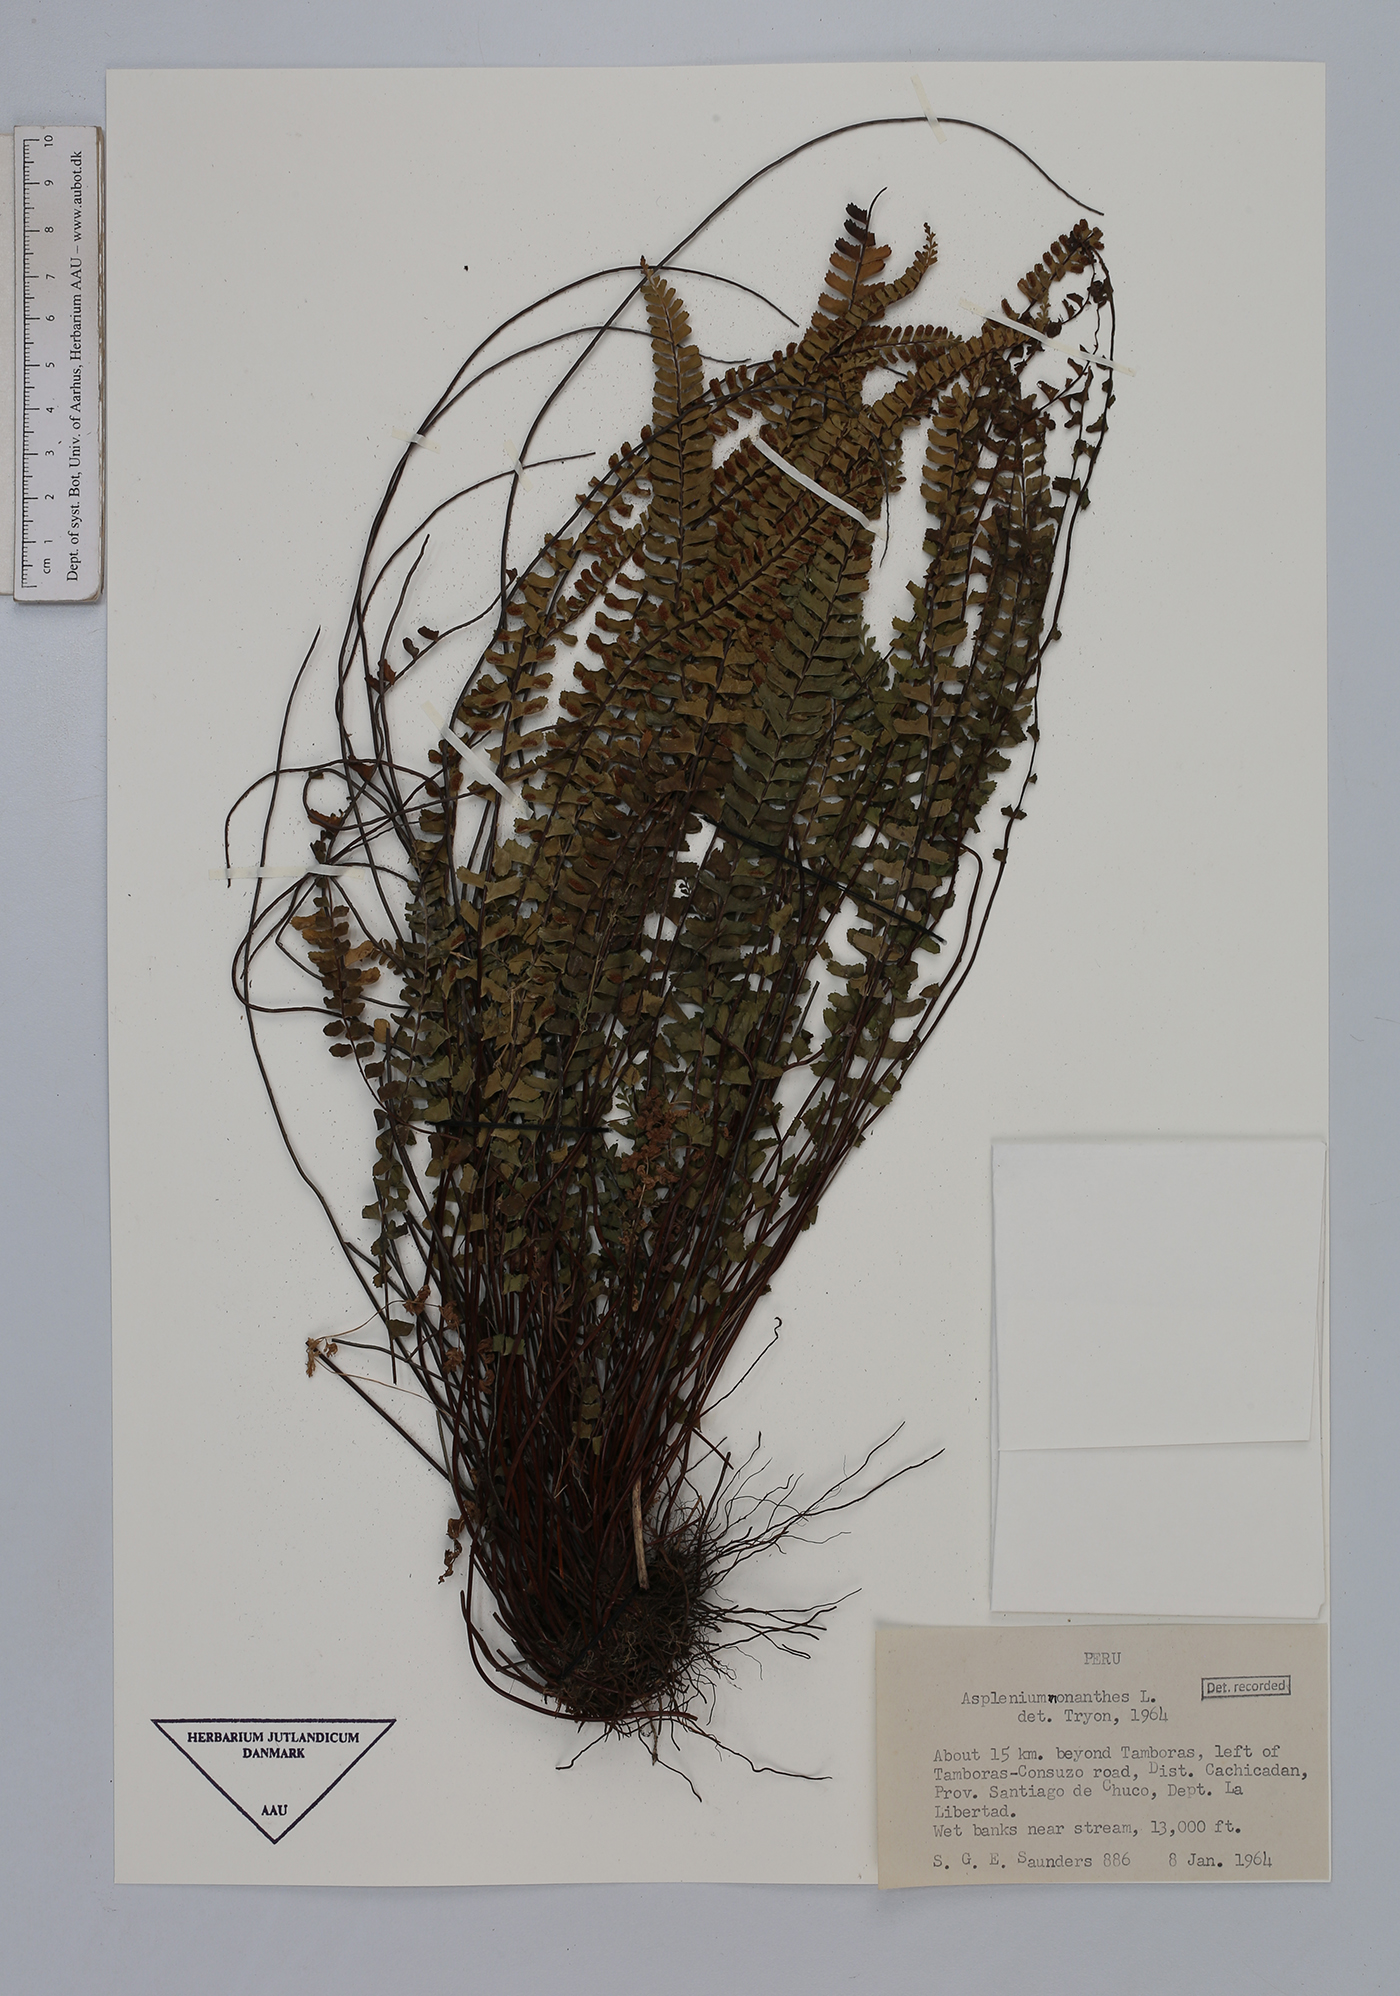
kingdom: Plantae
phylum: Tracheophyta
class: Polypodiopsida
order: Polypodiales
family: Aspleniaceae
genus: Asplenium
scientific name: Asplenium monanthes
